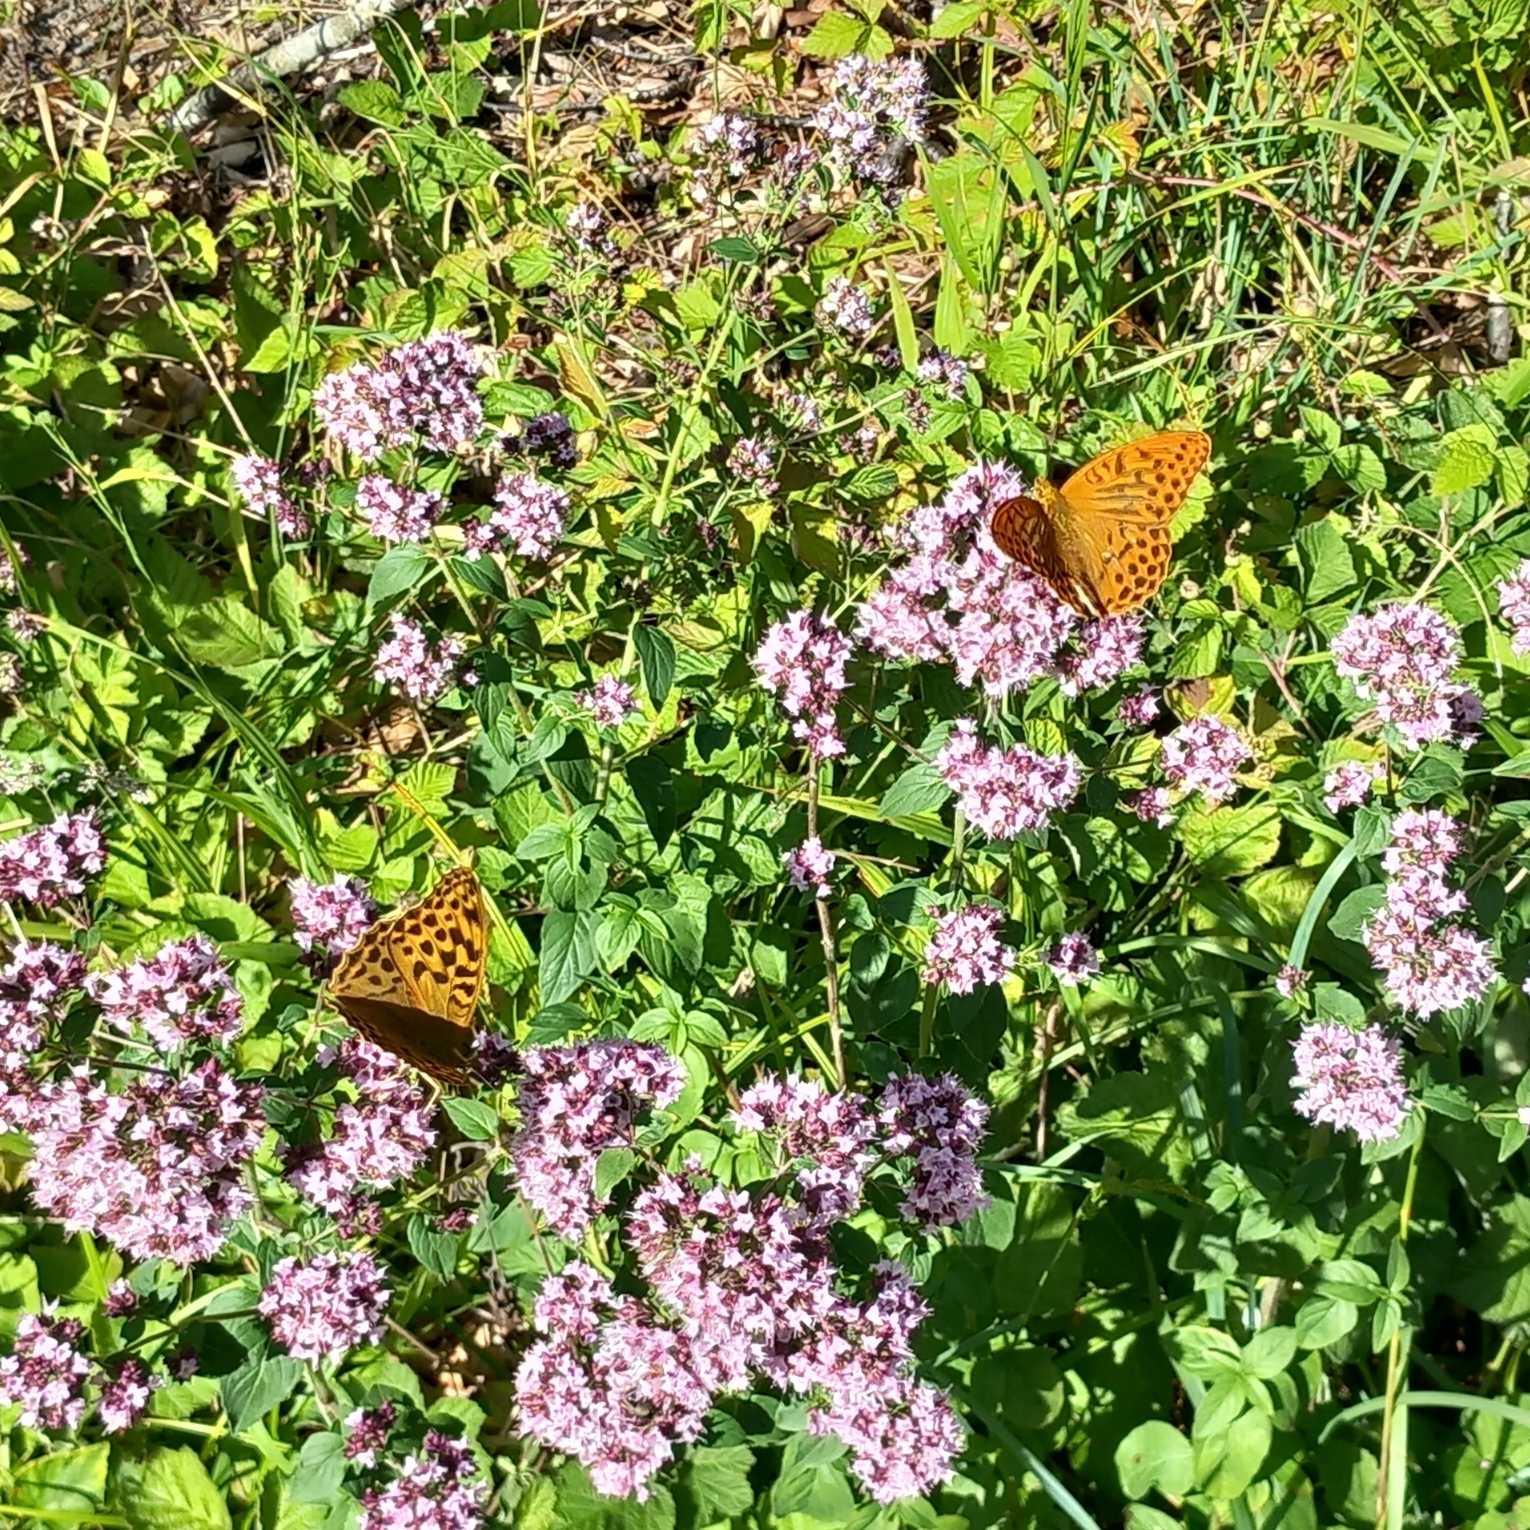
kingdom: Animalia
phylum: Arthropoda
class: Insecta
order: Lepidoptera
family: Nymphalidae
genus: Argynnis
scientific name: Argynnis paphia
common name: Kejserkåbe
